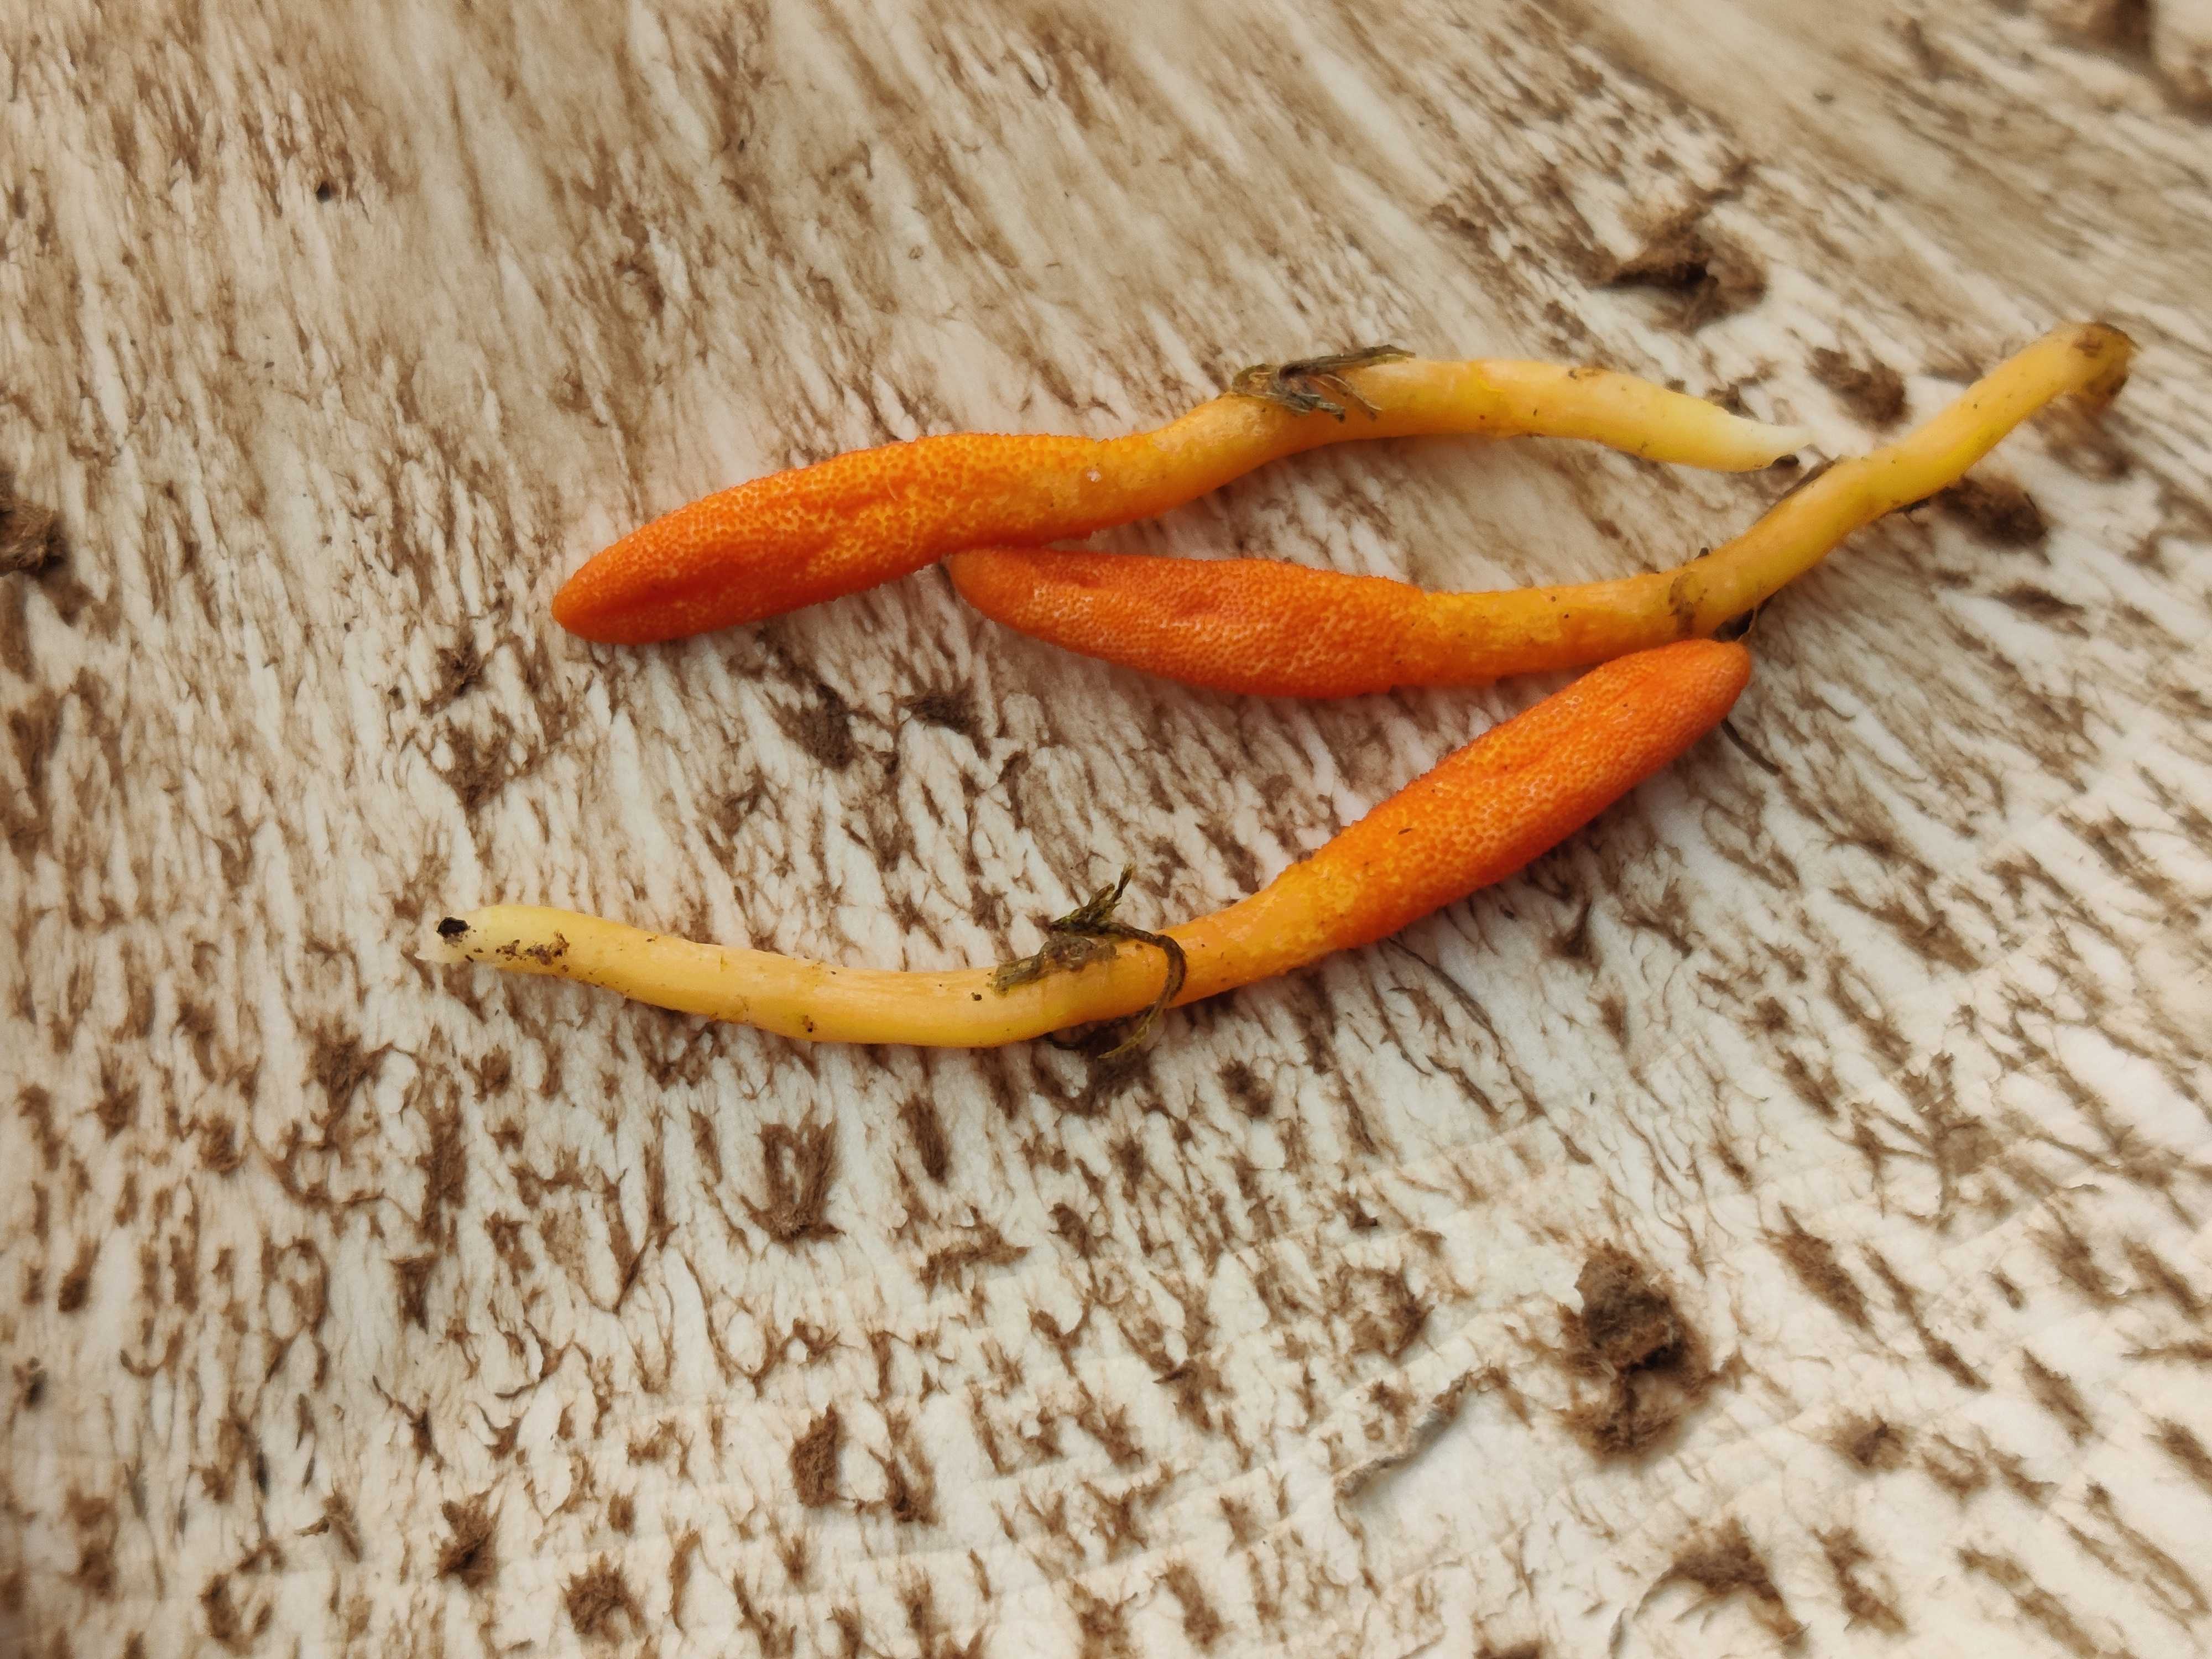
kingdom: Fungi
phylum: Ascomycota
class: Sordariomycetes
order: Hypocreales
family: Cordycipitaceae
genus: Cordyceps
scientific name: Cordyceps militaris
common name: puppe-snyltekølle
